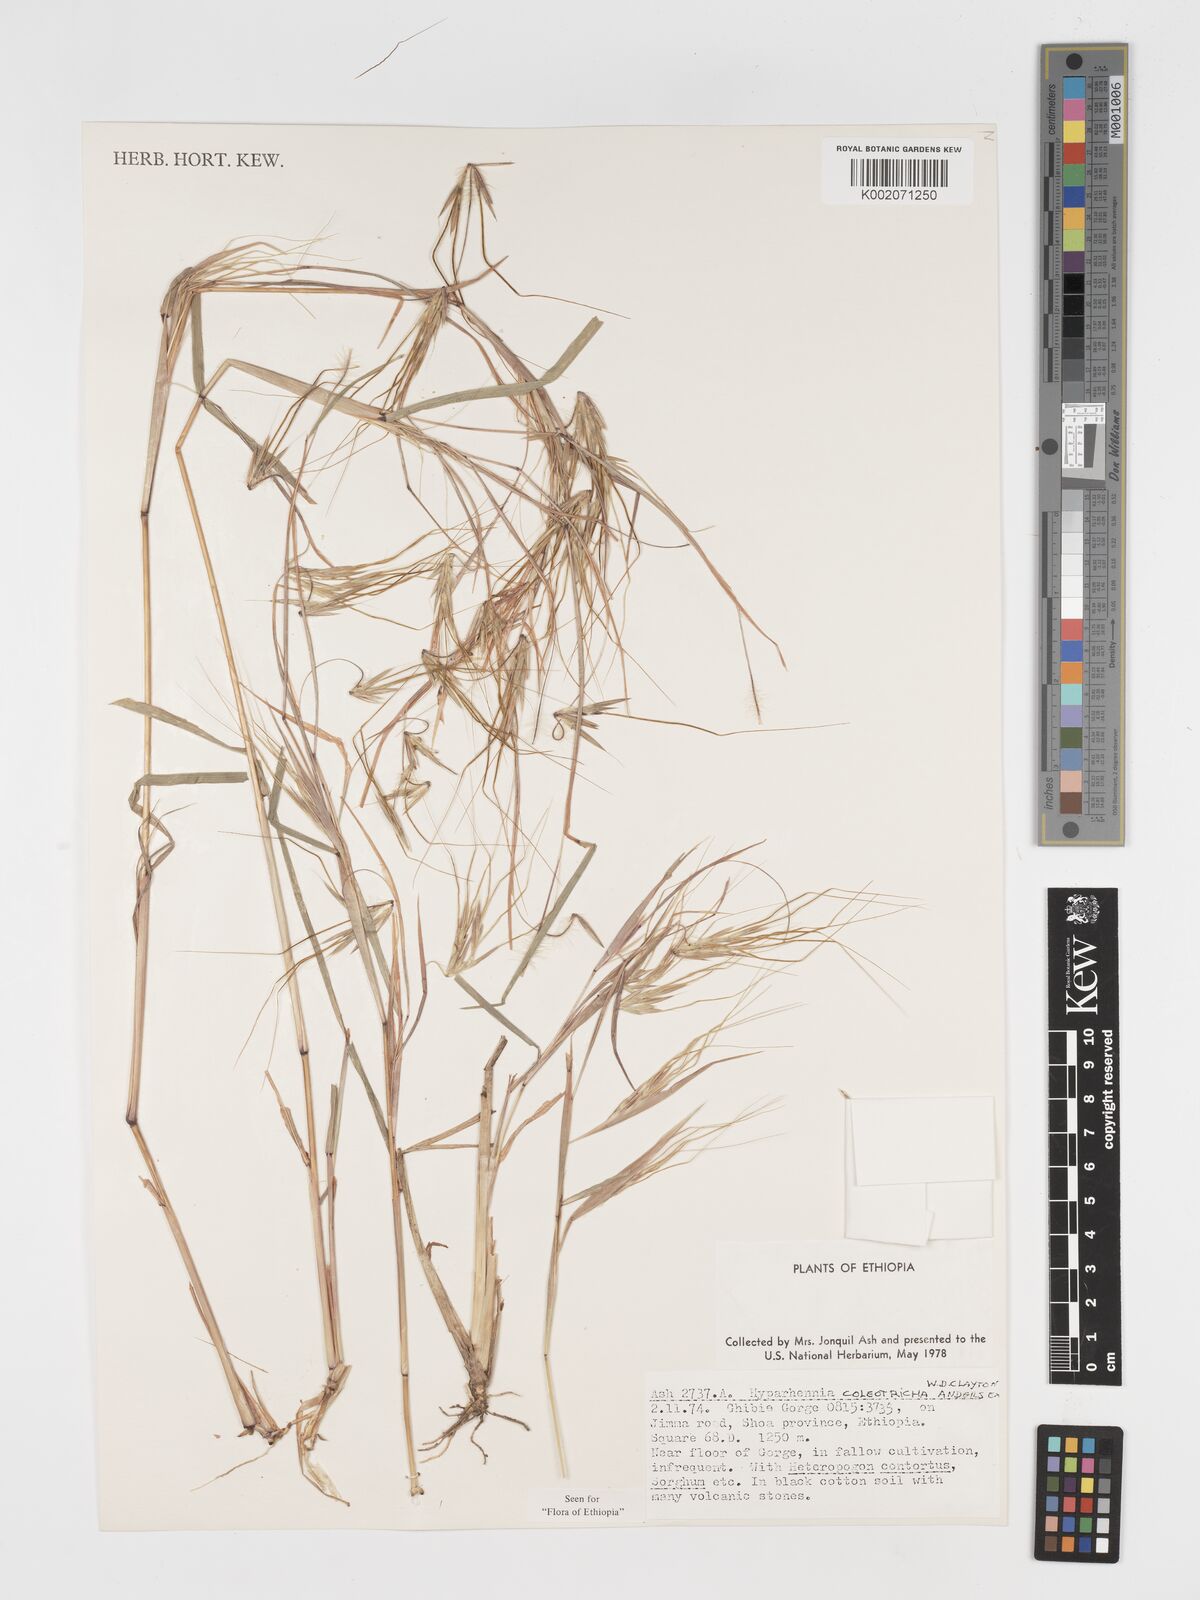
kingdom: Plantae
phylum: Tracheophyta
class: Liliopsida
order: Poales
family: Poaceae
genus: Hyparrhenia
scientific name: Hyparrhenia coleotricha
